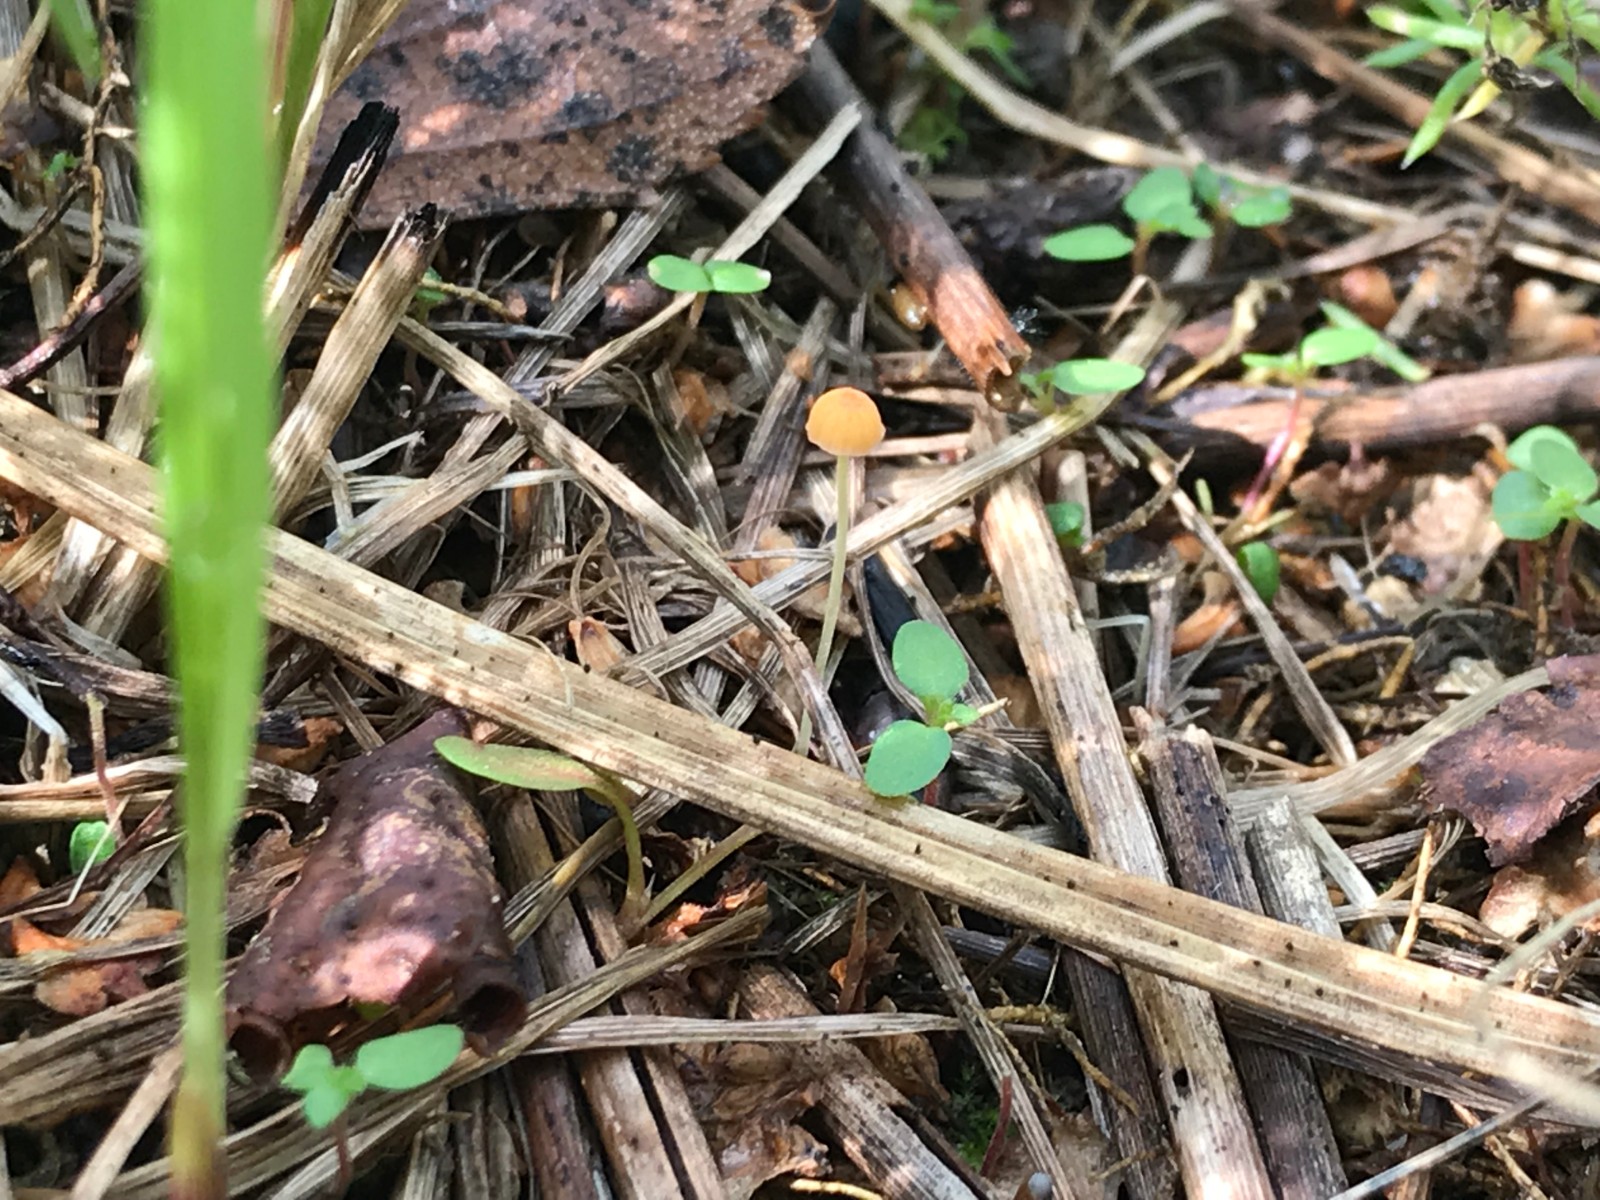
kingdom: Fungi
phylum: Basidiomycota
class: Agaricomycetes
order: Agaricales
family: Mycenaceae
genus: Mycena
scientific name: Mycena acicula
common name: orange huesvamp
